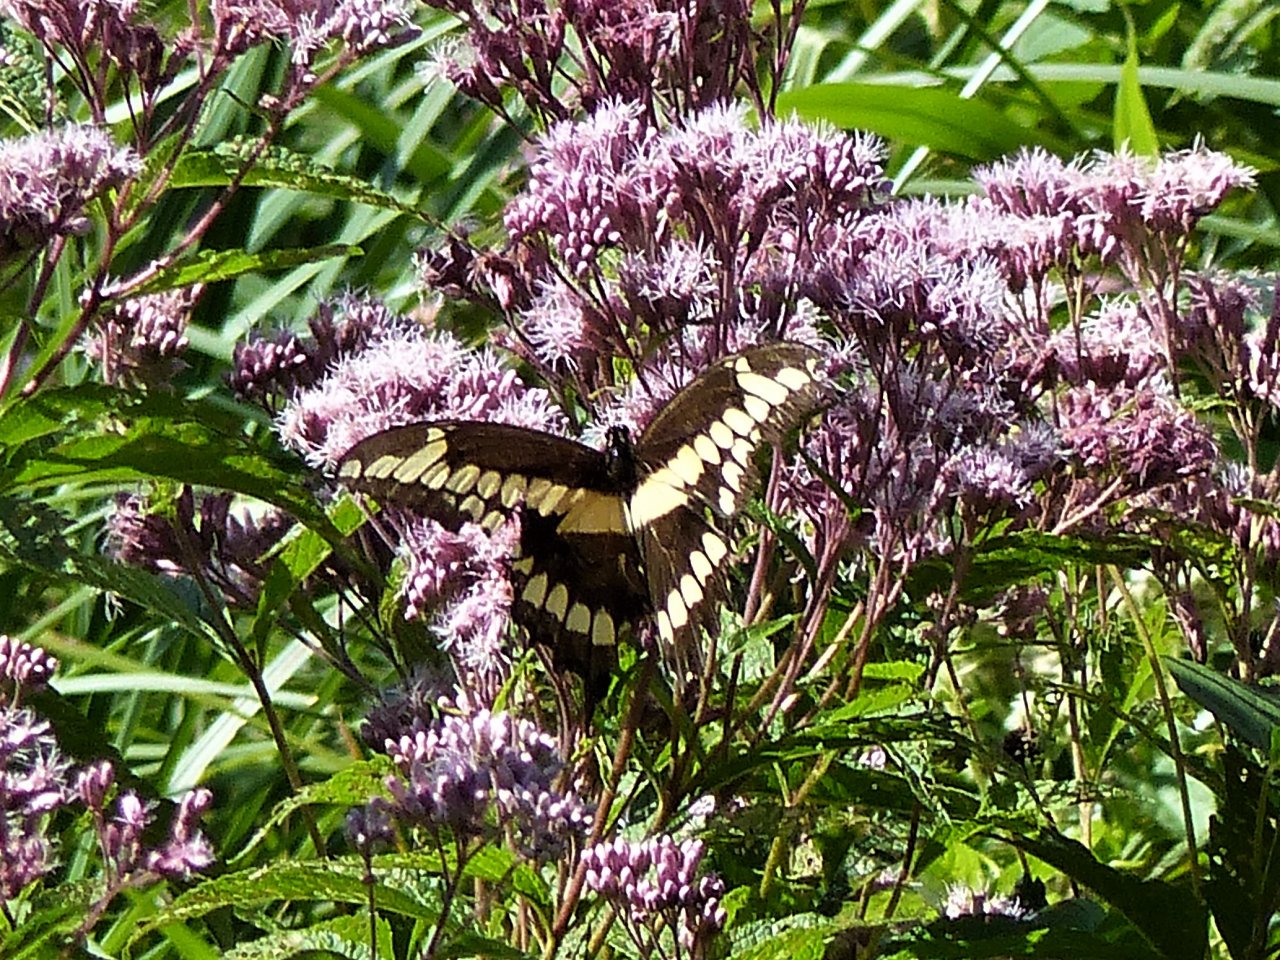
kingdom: Animalia
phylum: Arthropoda
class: Insecta
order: Lepidoptera
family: Papilionidae
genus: Papilio
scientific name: Papilio cresphontes
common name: Eastern Giant Swallowtail
